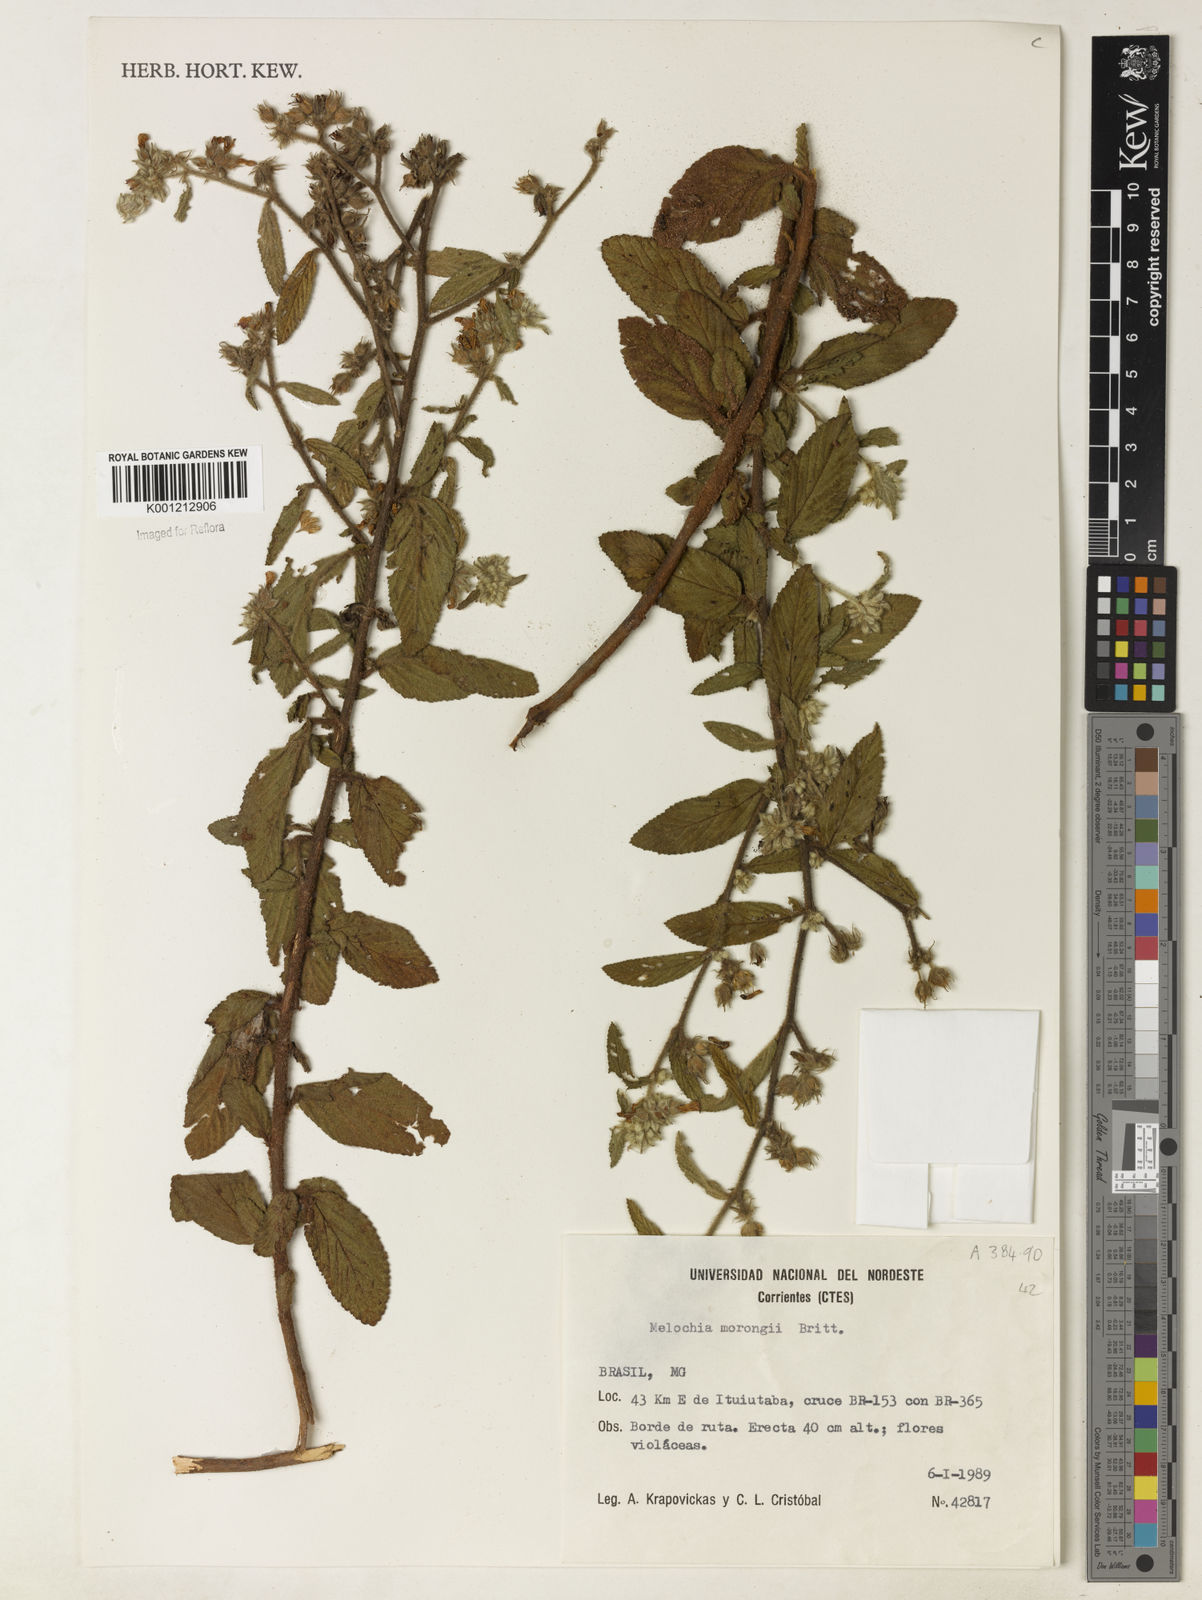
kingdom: Plantae
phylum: Tracheophyta
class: Magnoliopsida
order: Malvales
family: Malvaceae
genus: Melochia
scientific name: Melochia morongii
